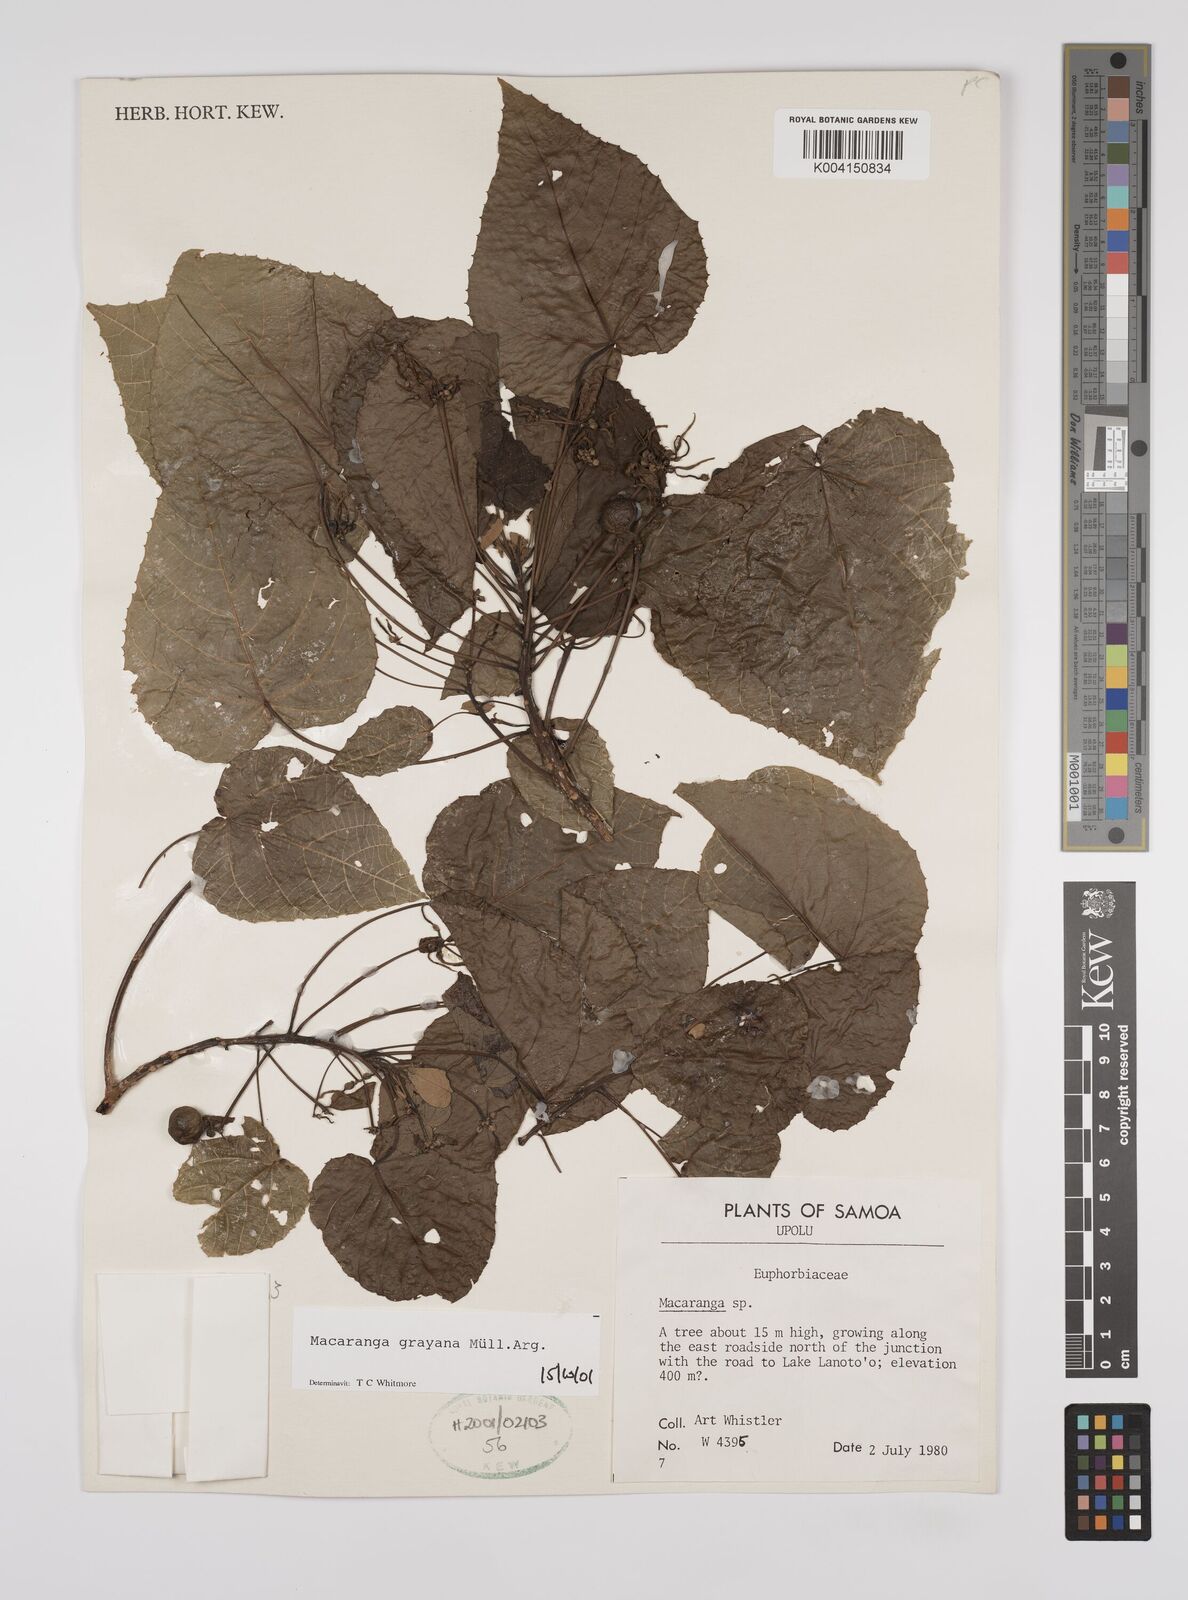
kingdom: Plantae
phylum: Tracheophyta
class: Magnoliopsida
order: Malpighiales
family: Euphorbiaceae
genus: Macaranga
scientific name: Macaranga grayana
